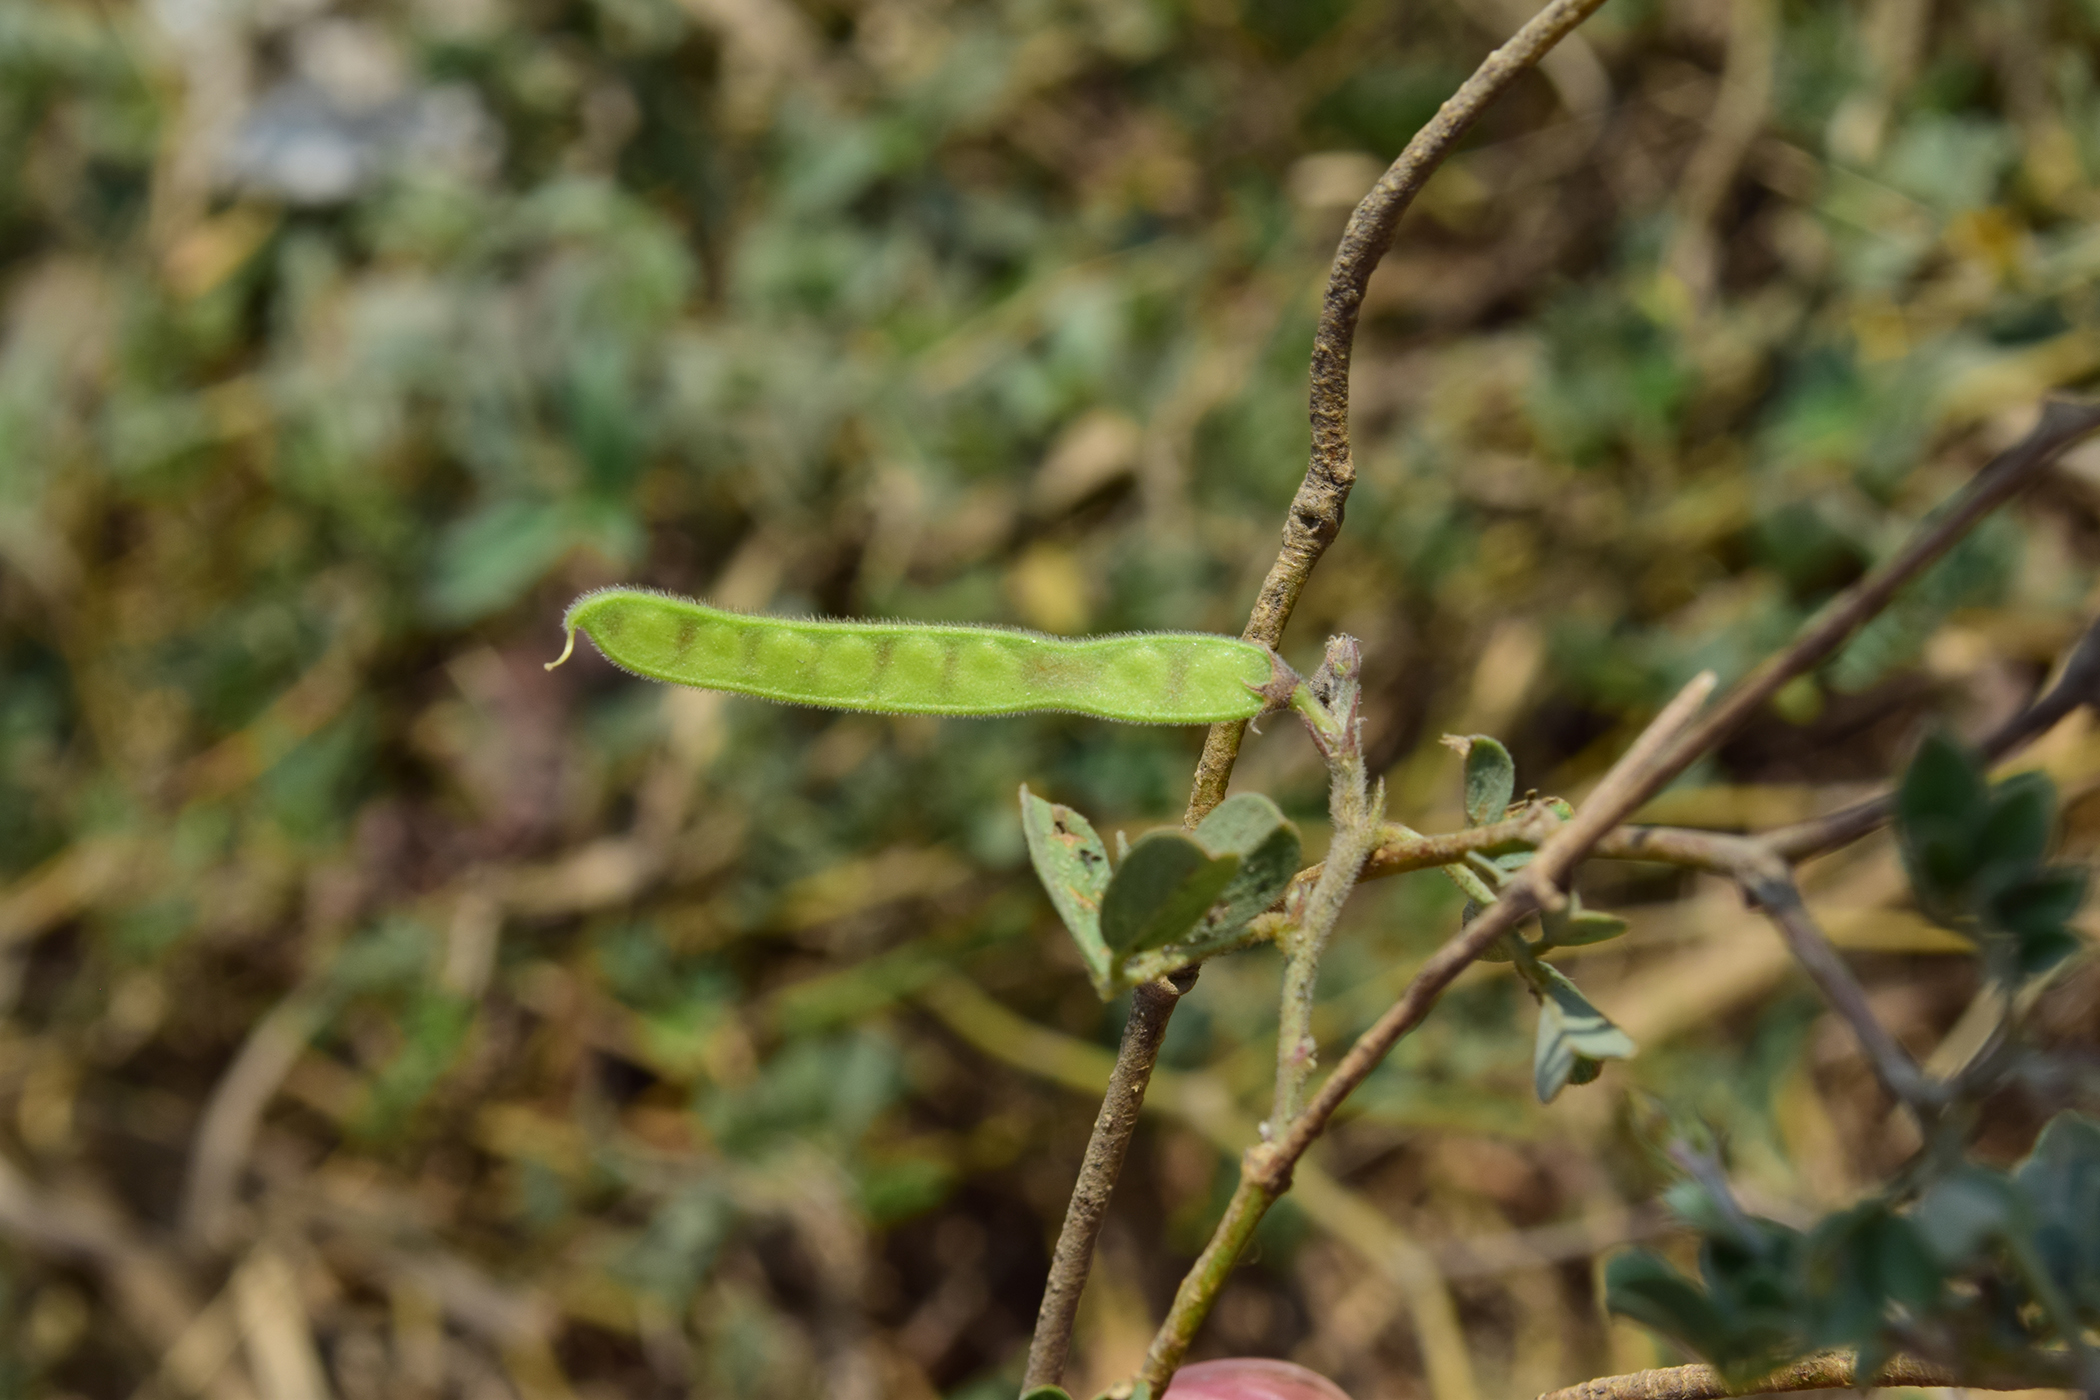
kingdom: Plantae
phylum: Tracheophyta
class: Magnoliopsida
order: Fabales
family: Fabaceae
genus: Tephrosia
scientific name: Tephrosia purpurea
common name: Fishpoison
